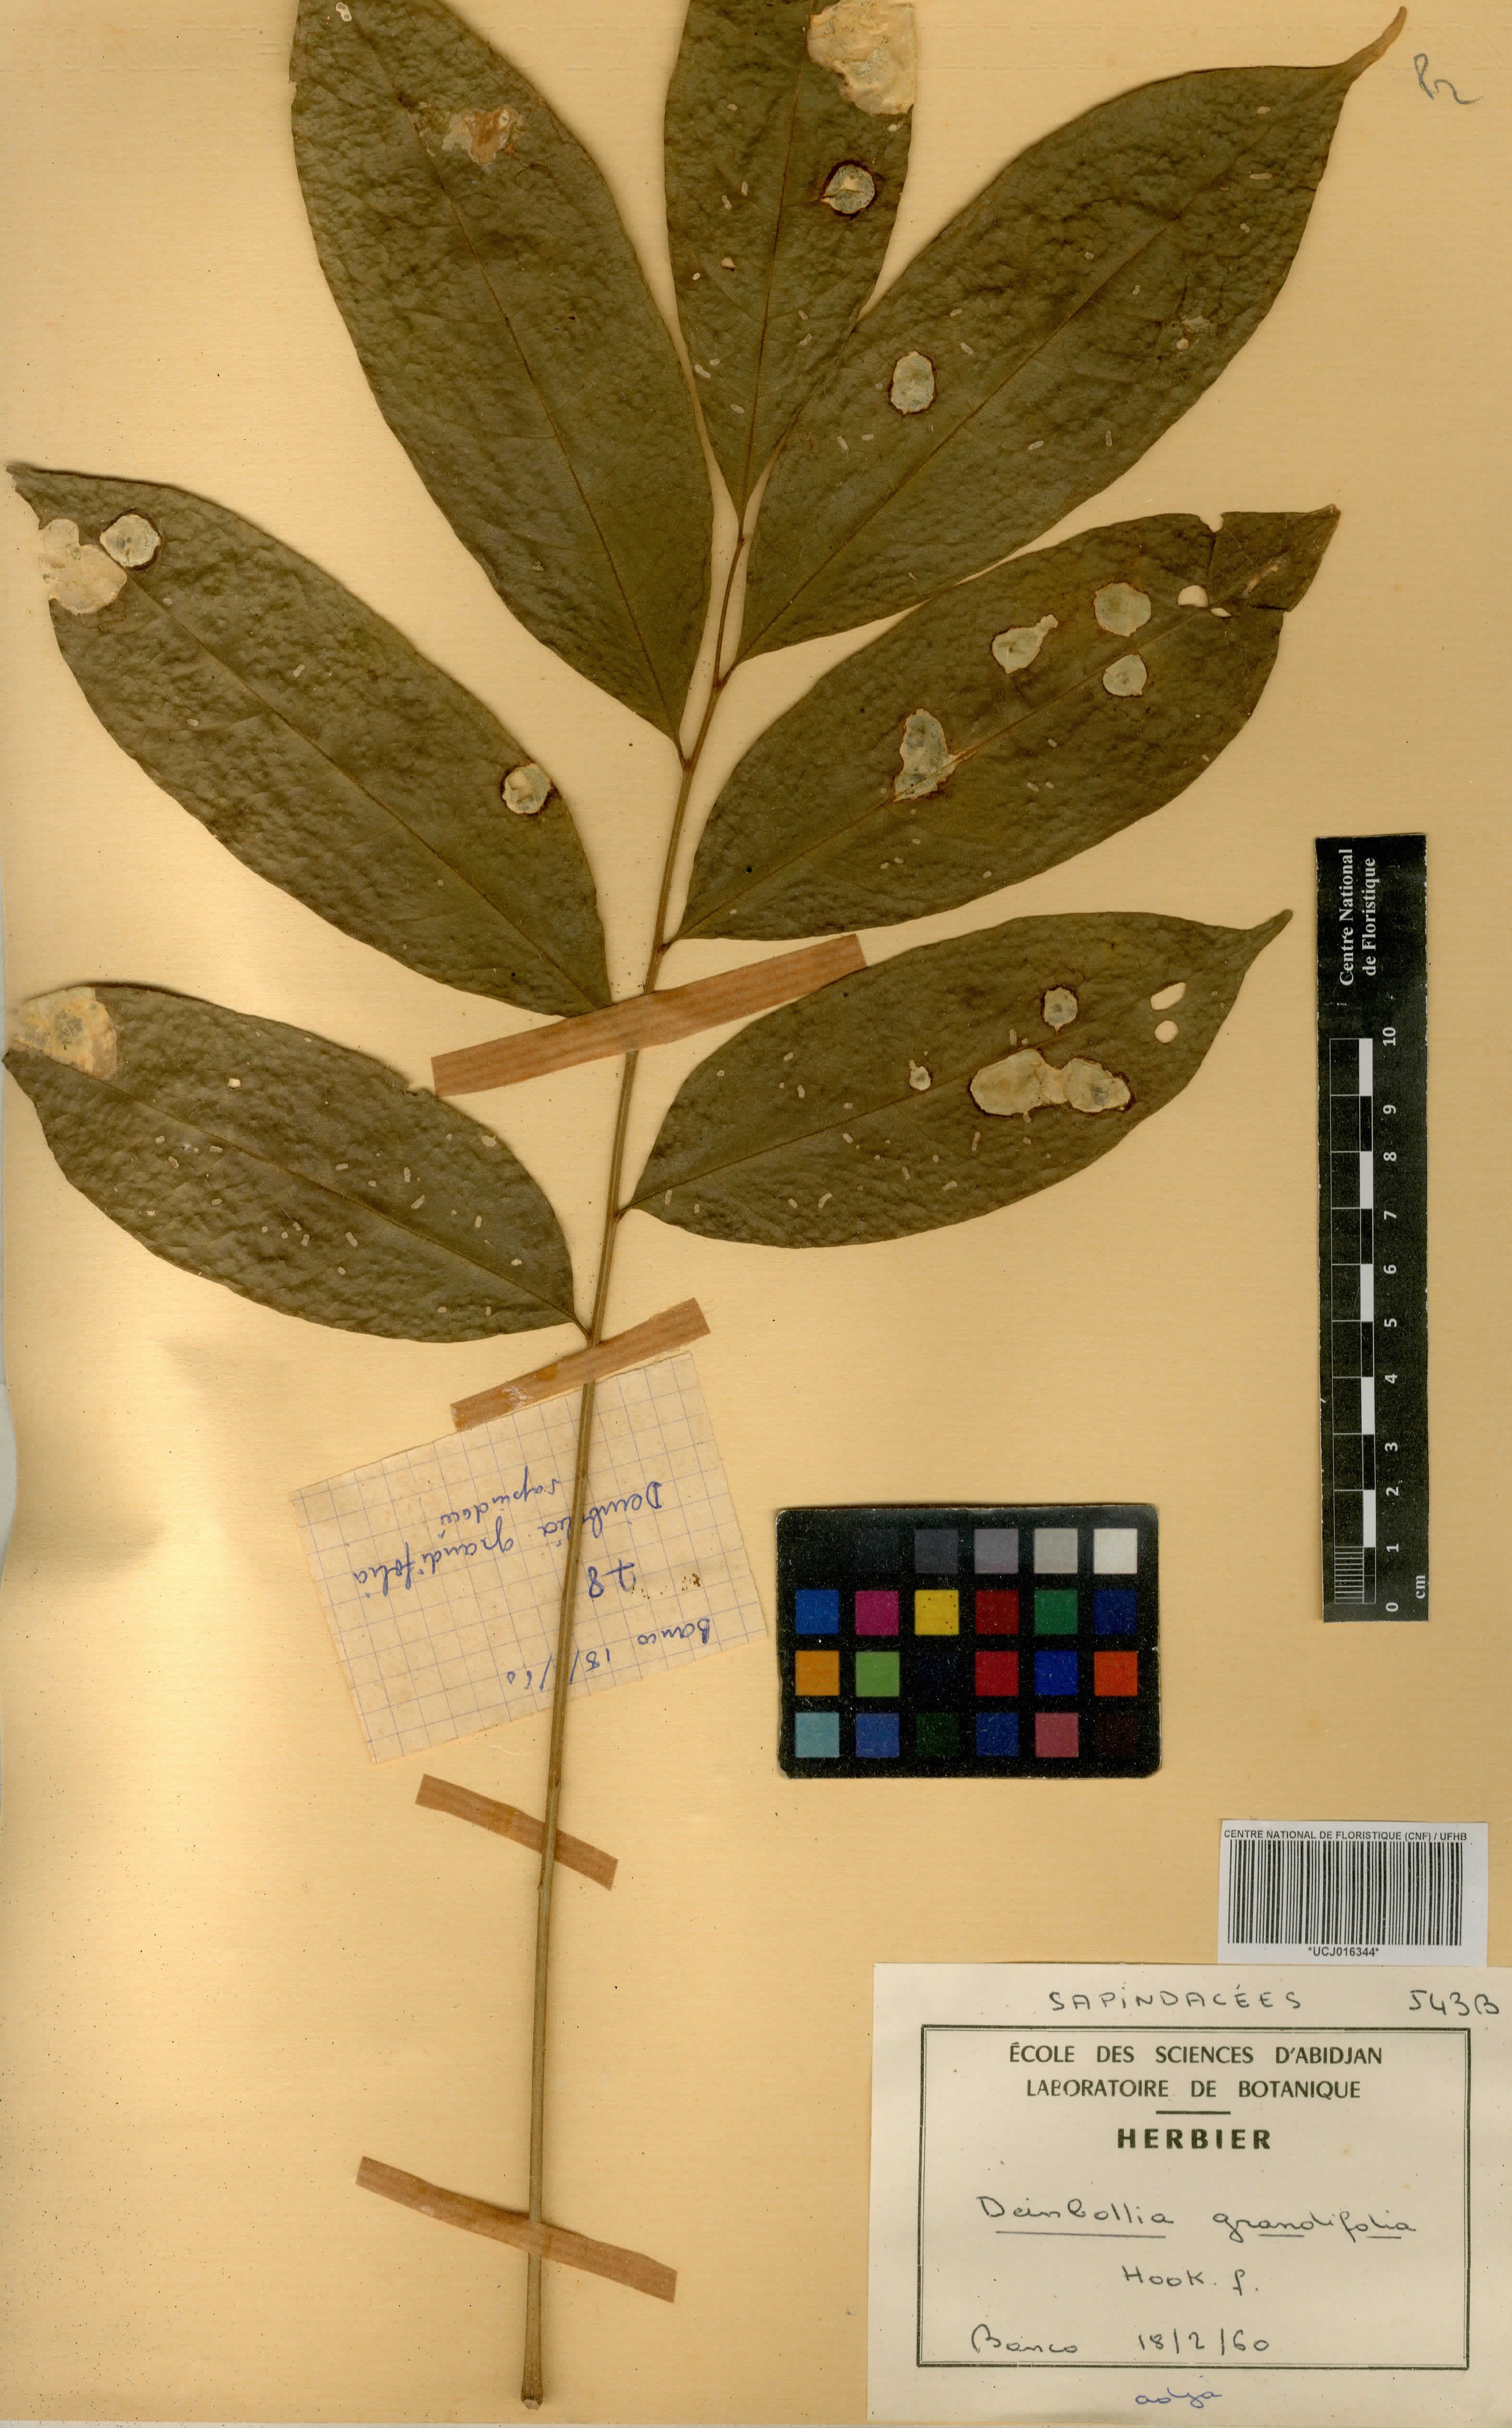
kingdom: Plantae
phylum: Tracheophyta
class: Magnoliopsida
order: Sapindales
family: Sapindaceae
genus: Deinbollia
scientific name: Deinbollia grandifolia
